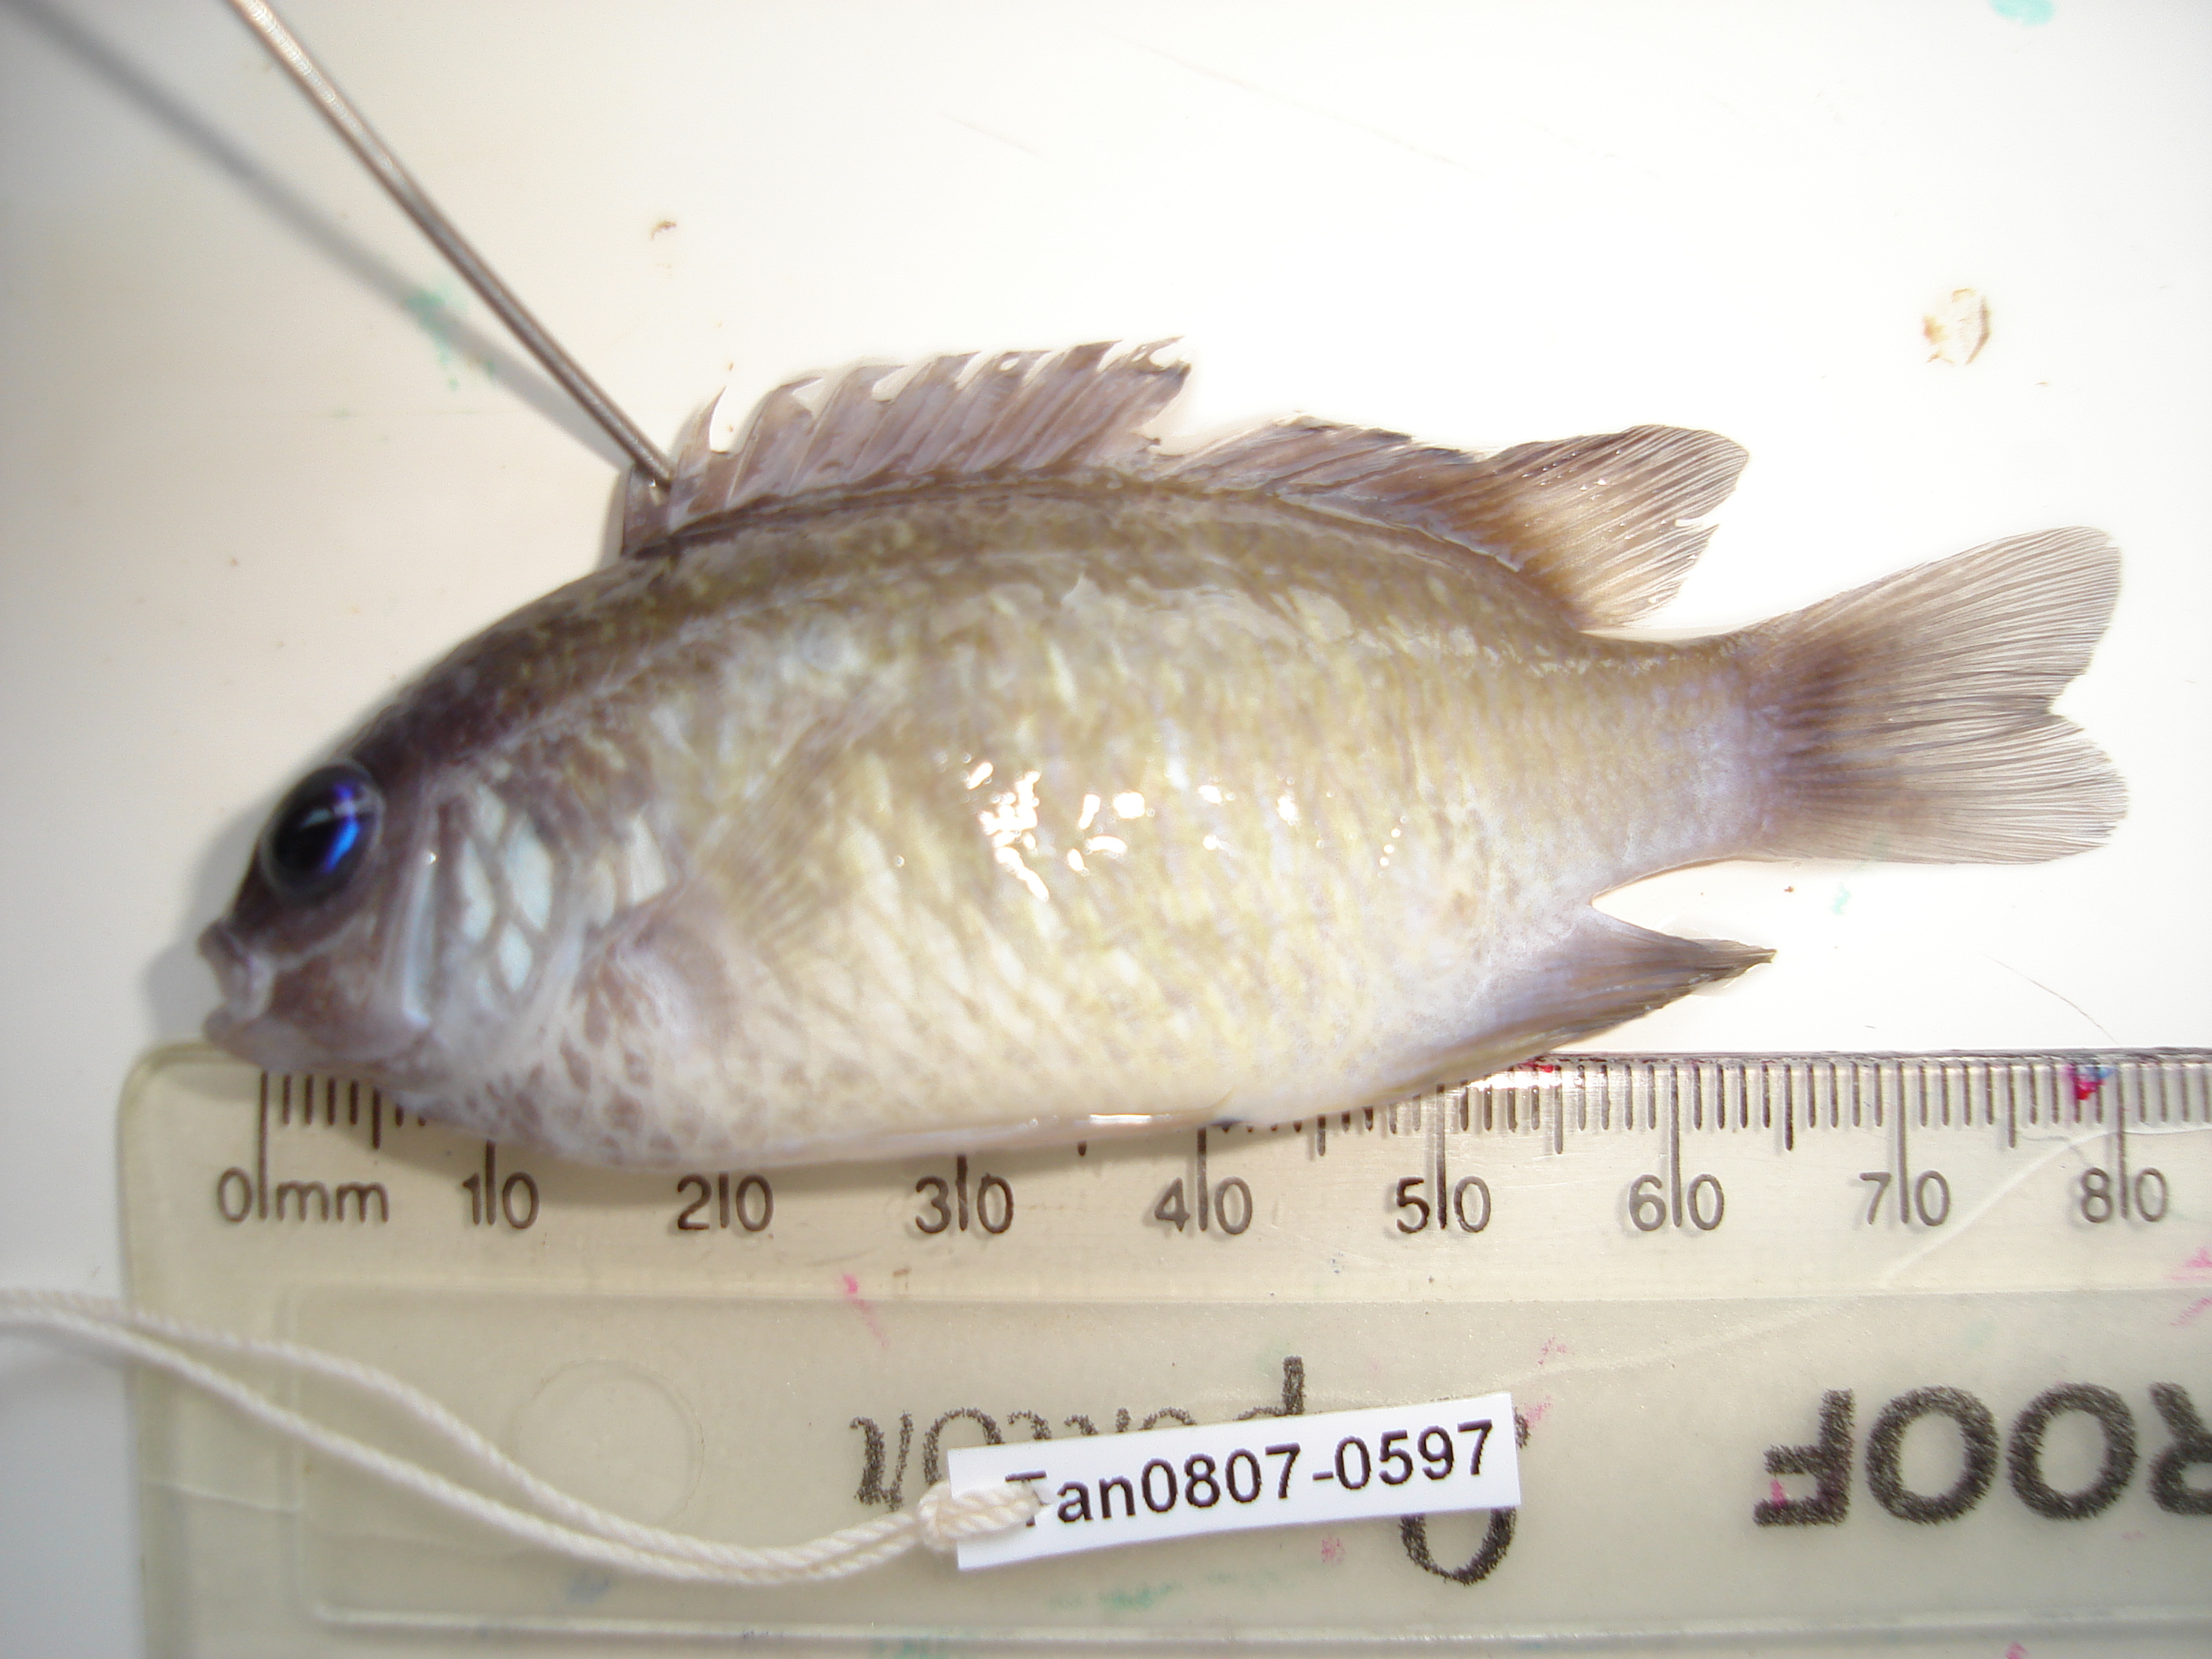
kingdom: Animalia
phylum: Chordata
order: Perciformes
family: Pomacentridae
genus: Chrysiptera
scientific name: Chrysiptera glauca
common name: Grey demoiselle
